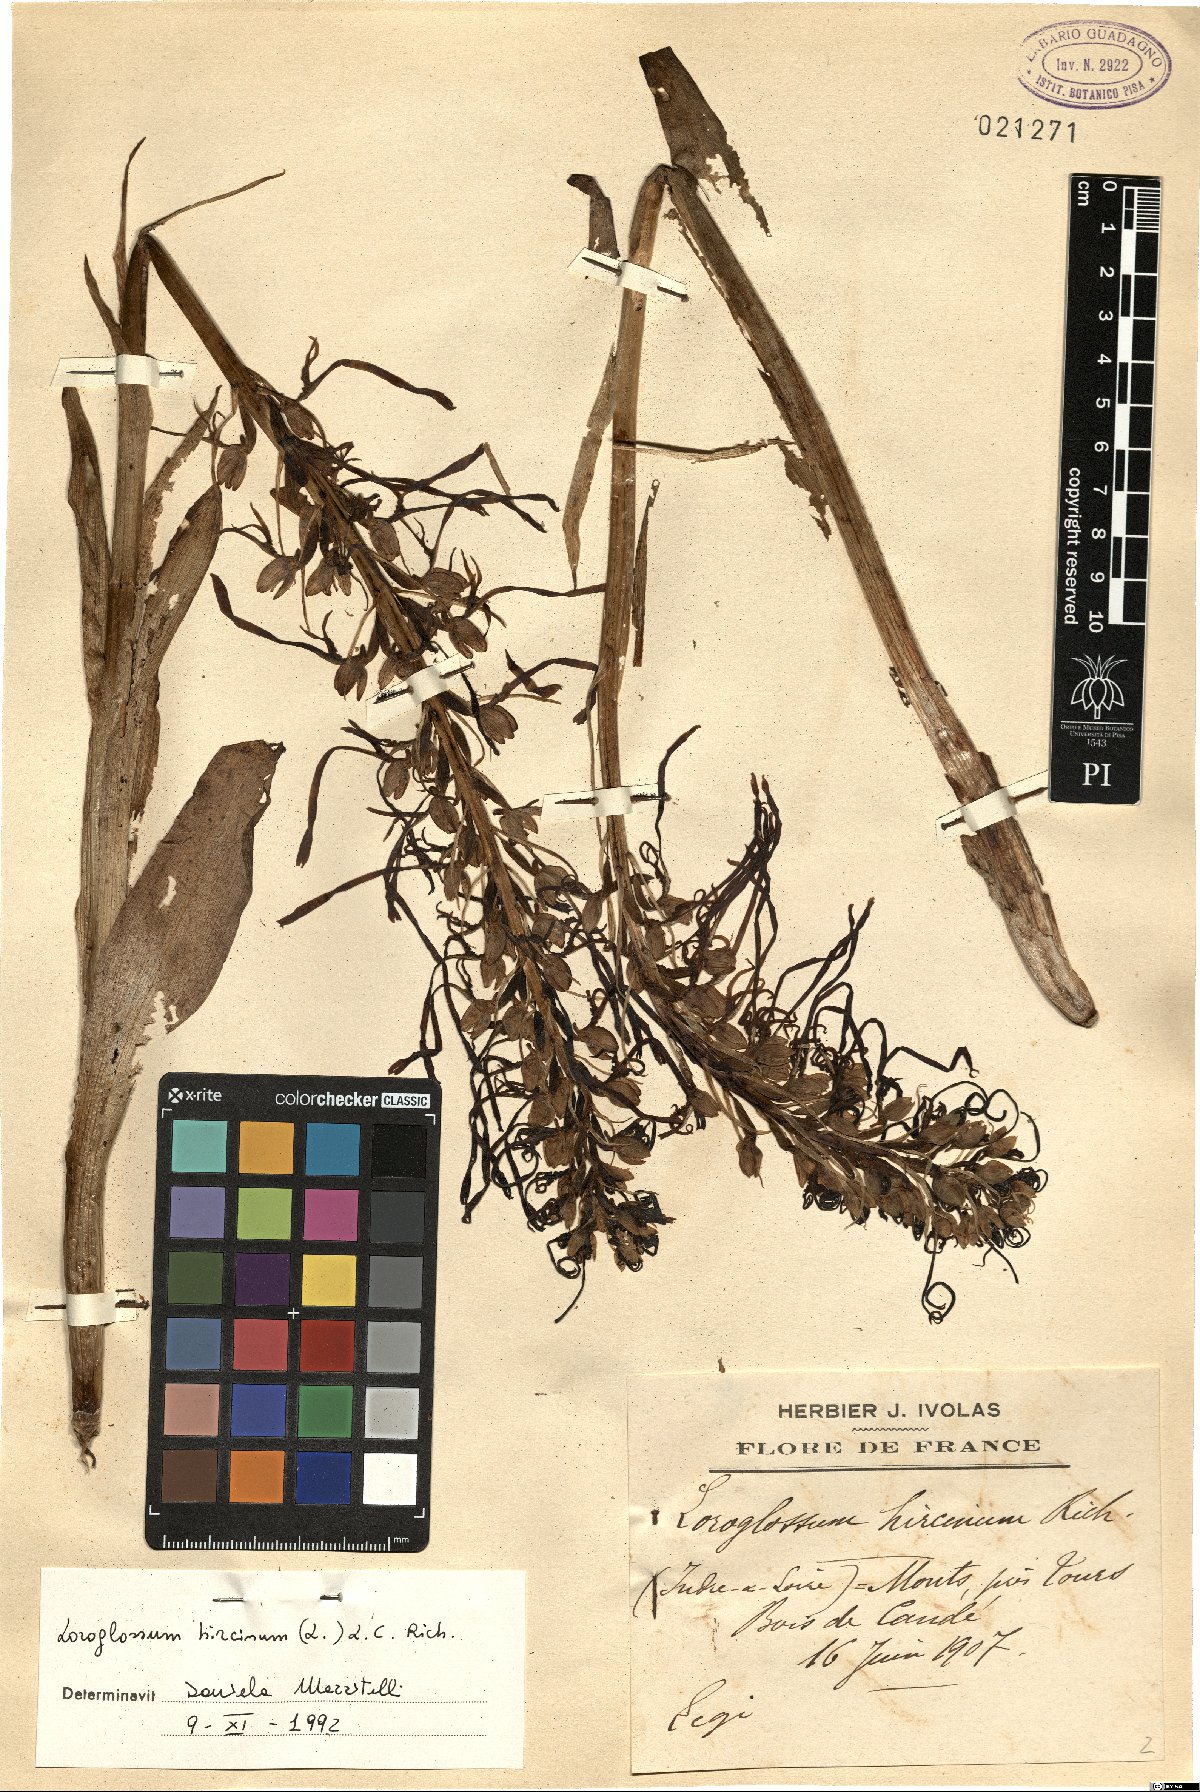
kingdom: Plantae
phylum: Tracheophyta
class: Liliopsida
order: Asparagales
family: Orchidaceae
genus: Himantoglossum
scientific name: Himantoglossum hircinum
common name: Lizard orchid
